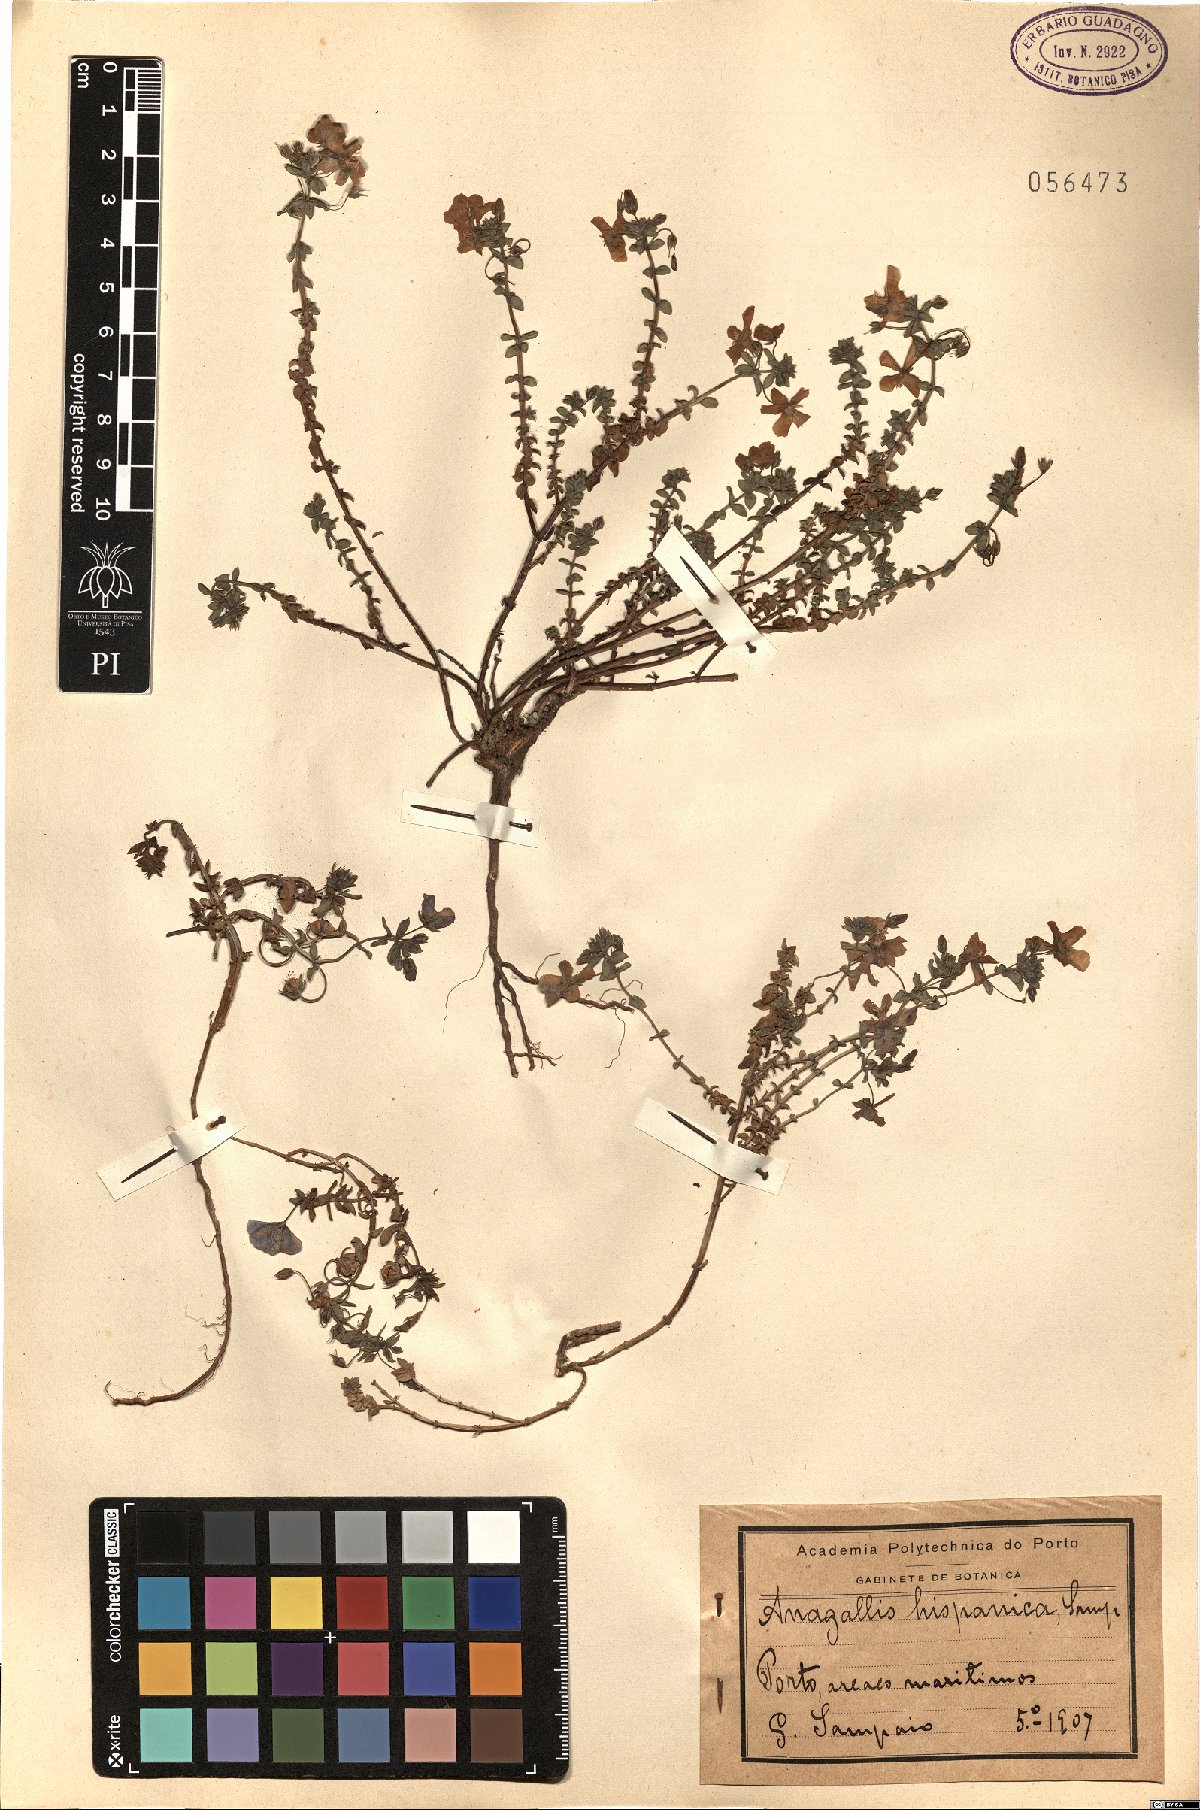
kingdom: Plantae
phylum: Tracheophyta
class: Magnoliopsida
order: Ericales
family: Primulaceae
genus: Lysimachia
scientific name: Lysimachia monelli
